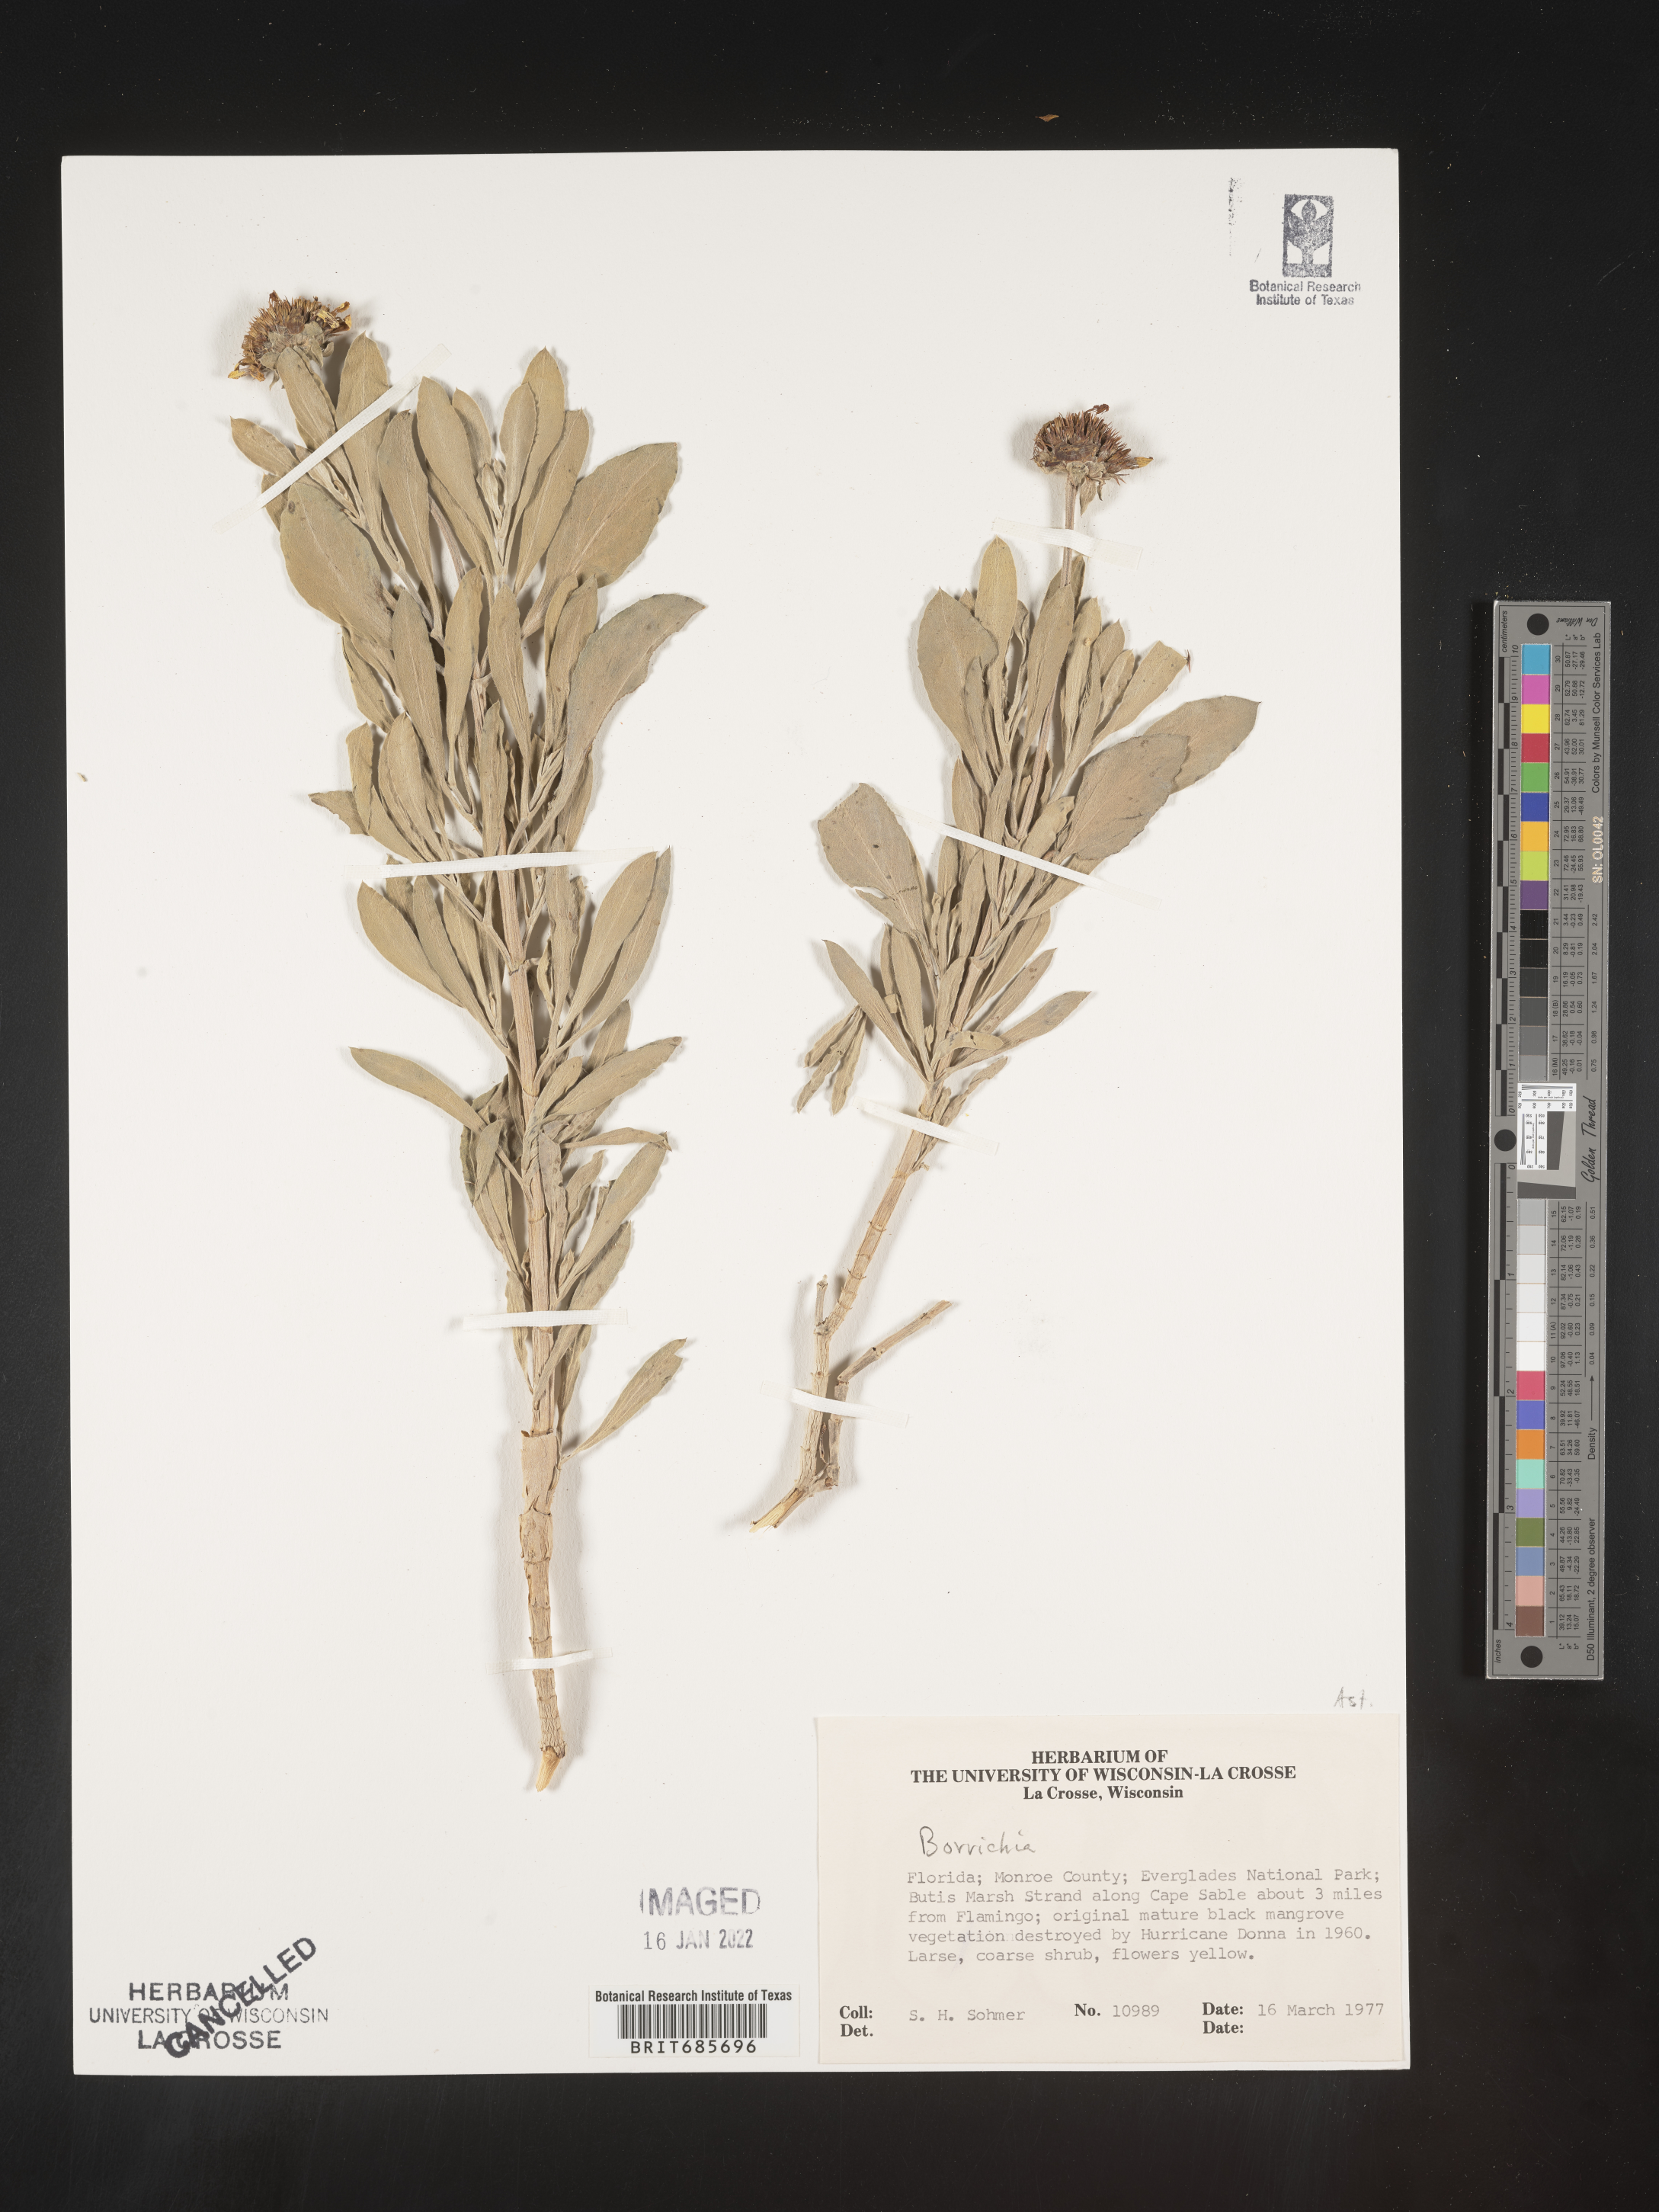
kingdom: Plantae
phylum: Tracheophyta
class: Magnoliopsida
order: Asterales
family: Asteraceae
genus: Borrichia
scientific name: Borrichia
